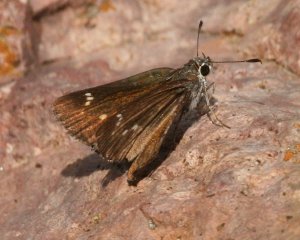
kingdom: Animalia
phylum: Arthropoda
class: Insecta
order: Lepidoptera
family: Hesperiidae
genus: Mastor
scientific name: Mastor aenus
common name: Bronze Roadside-Skipper
